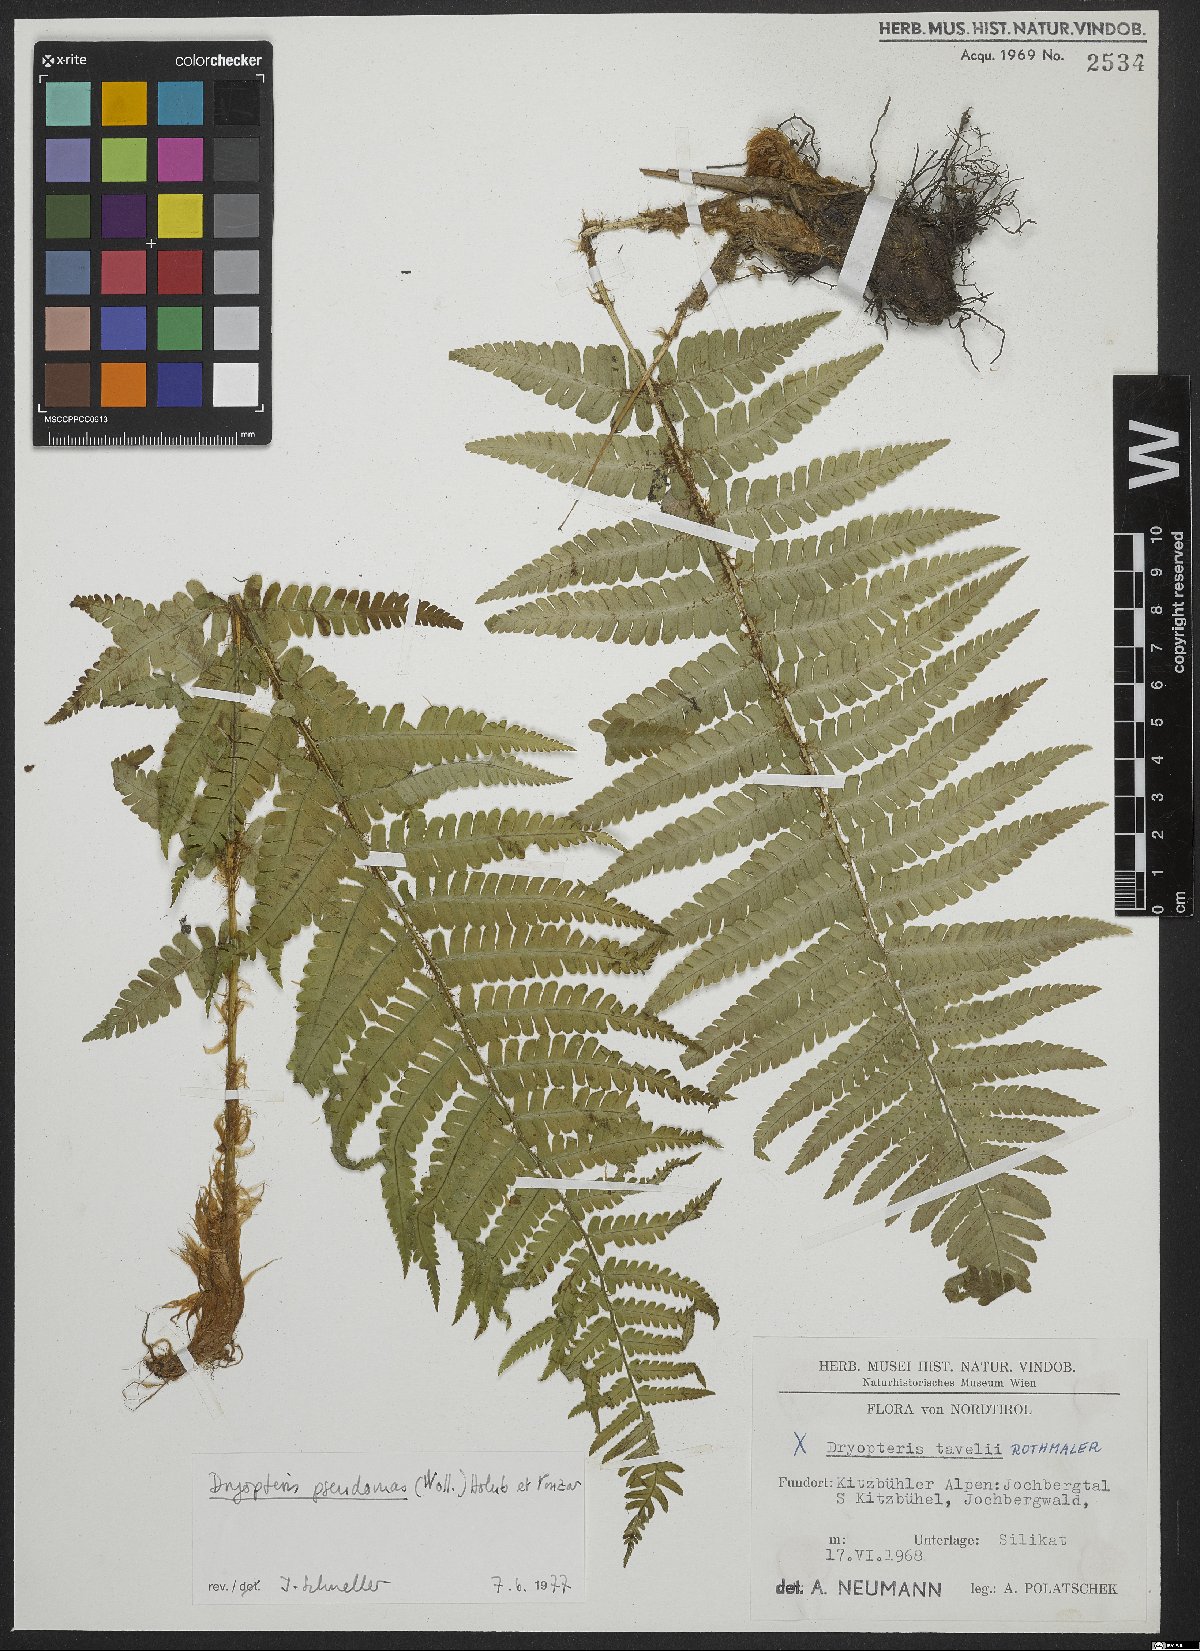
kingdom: Plantae
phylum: Tracheophyta
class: Polypodiopsida
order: Polypodiales
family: Dryopteridaceae
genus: Dryopteris
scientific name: Dryopteris borreri
